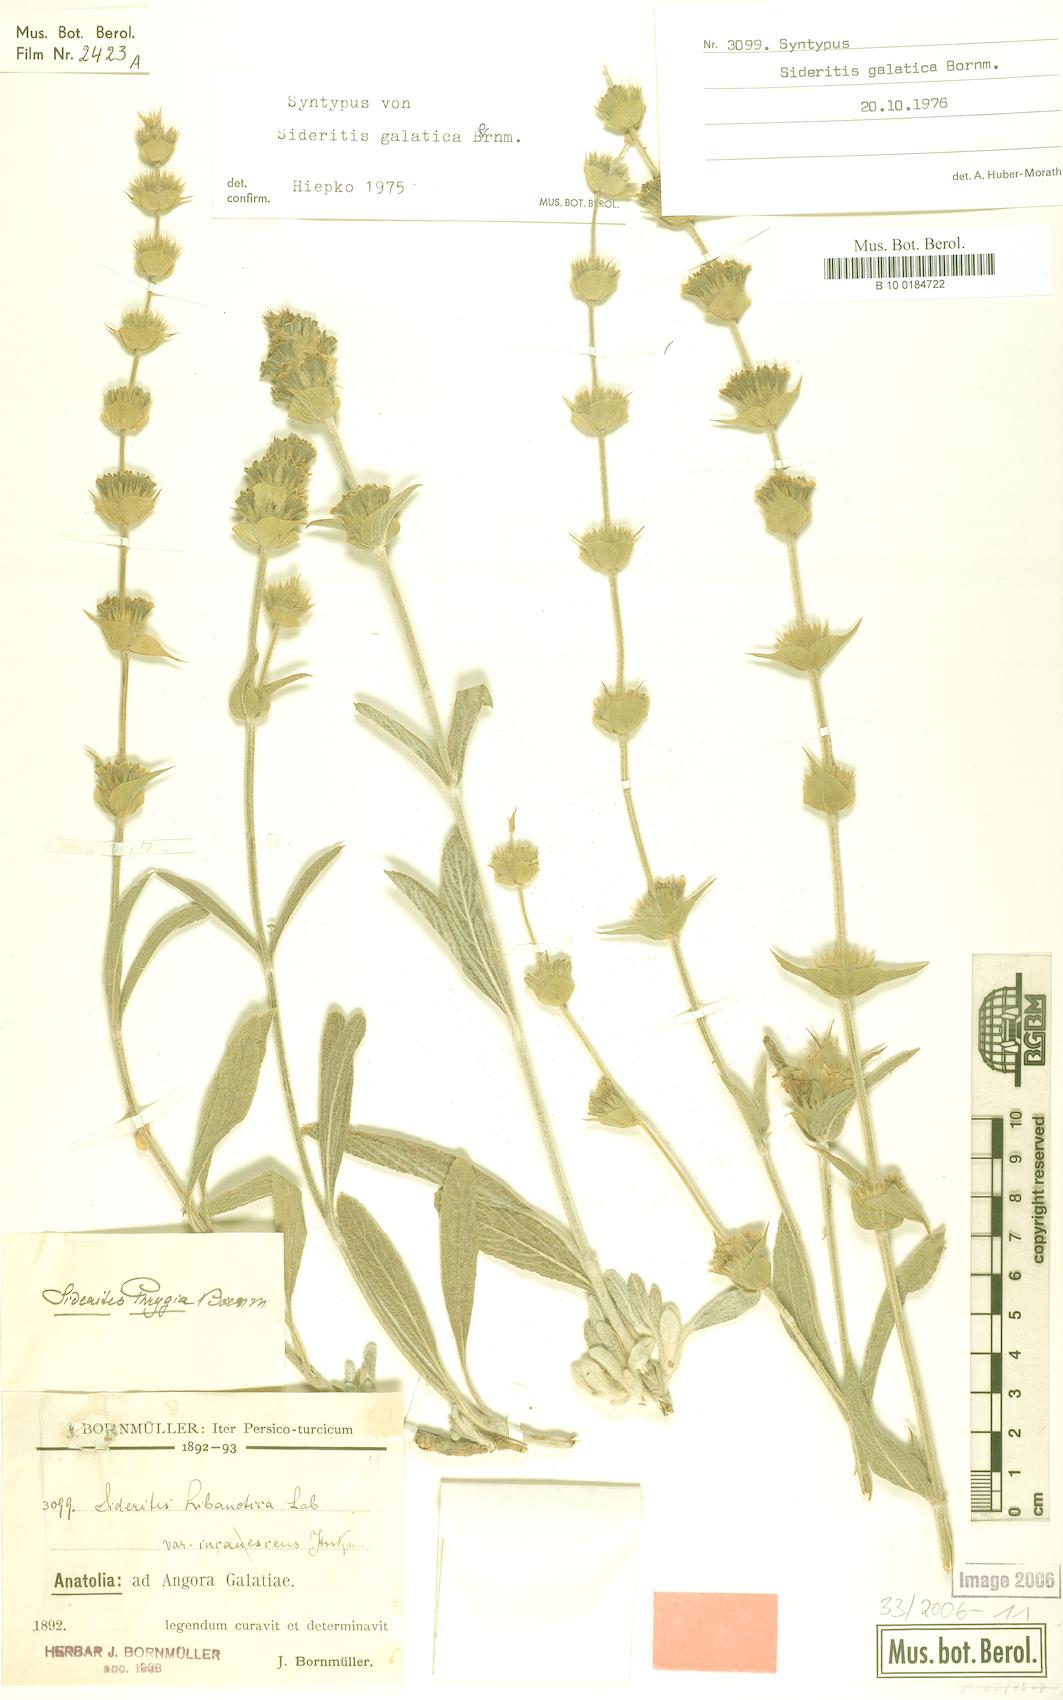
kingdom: Plantae
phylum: Tracheophyta
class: Magnoliopsida
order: Lamiales
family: Lamiaceae
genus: Sideritis
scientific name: Sideritis galatica
